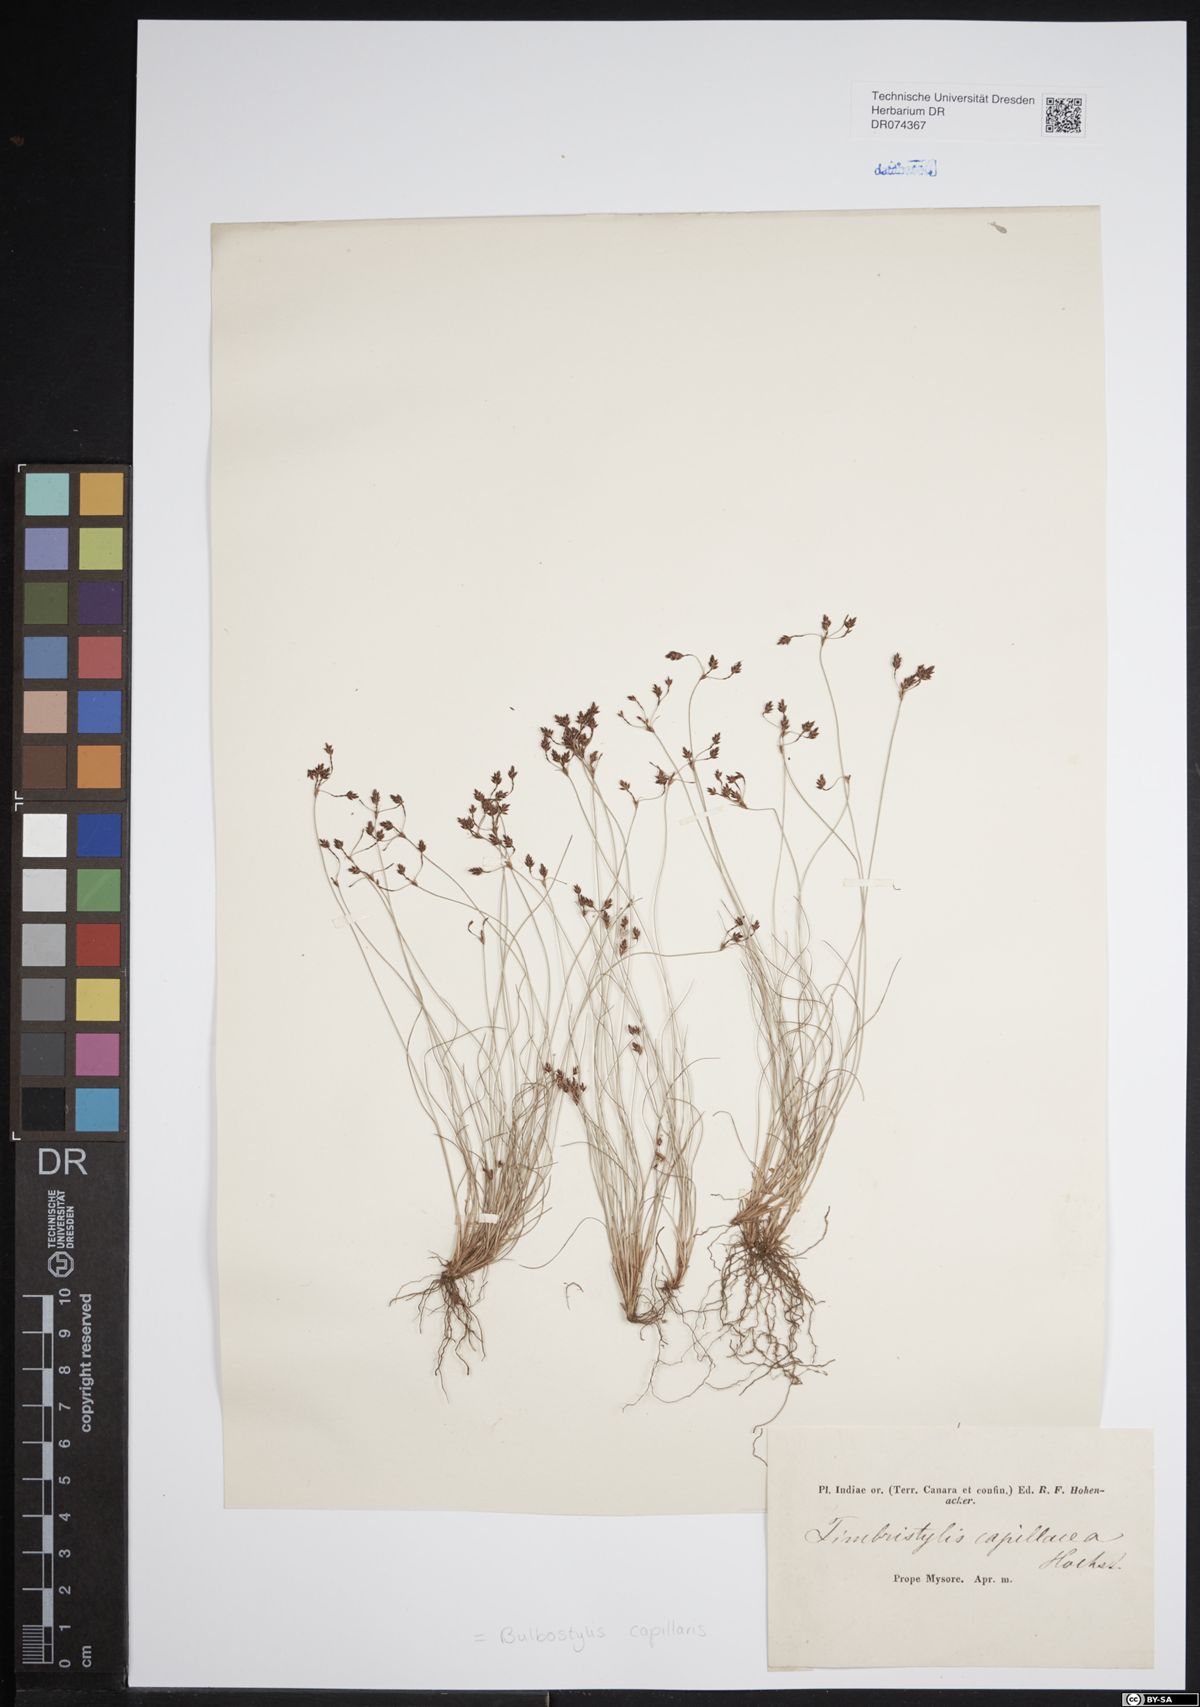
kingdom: Plantae
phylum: Tracheophyta
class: Liliopsida
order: Poales
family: Cyperaceae
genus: Bulbostylis
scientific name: Bulbostylis capillaris
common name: Densetuft hairsedge
